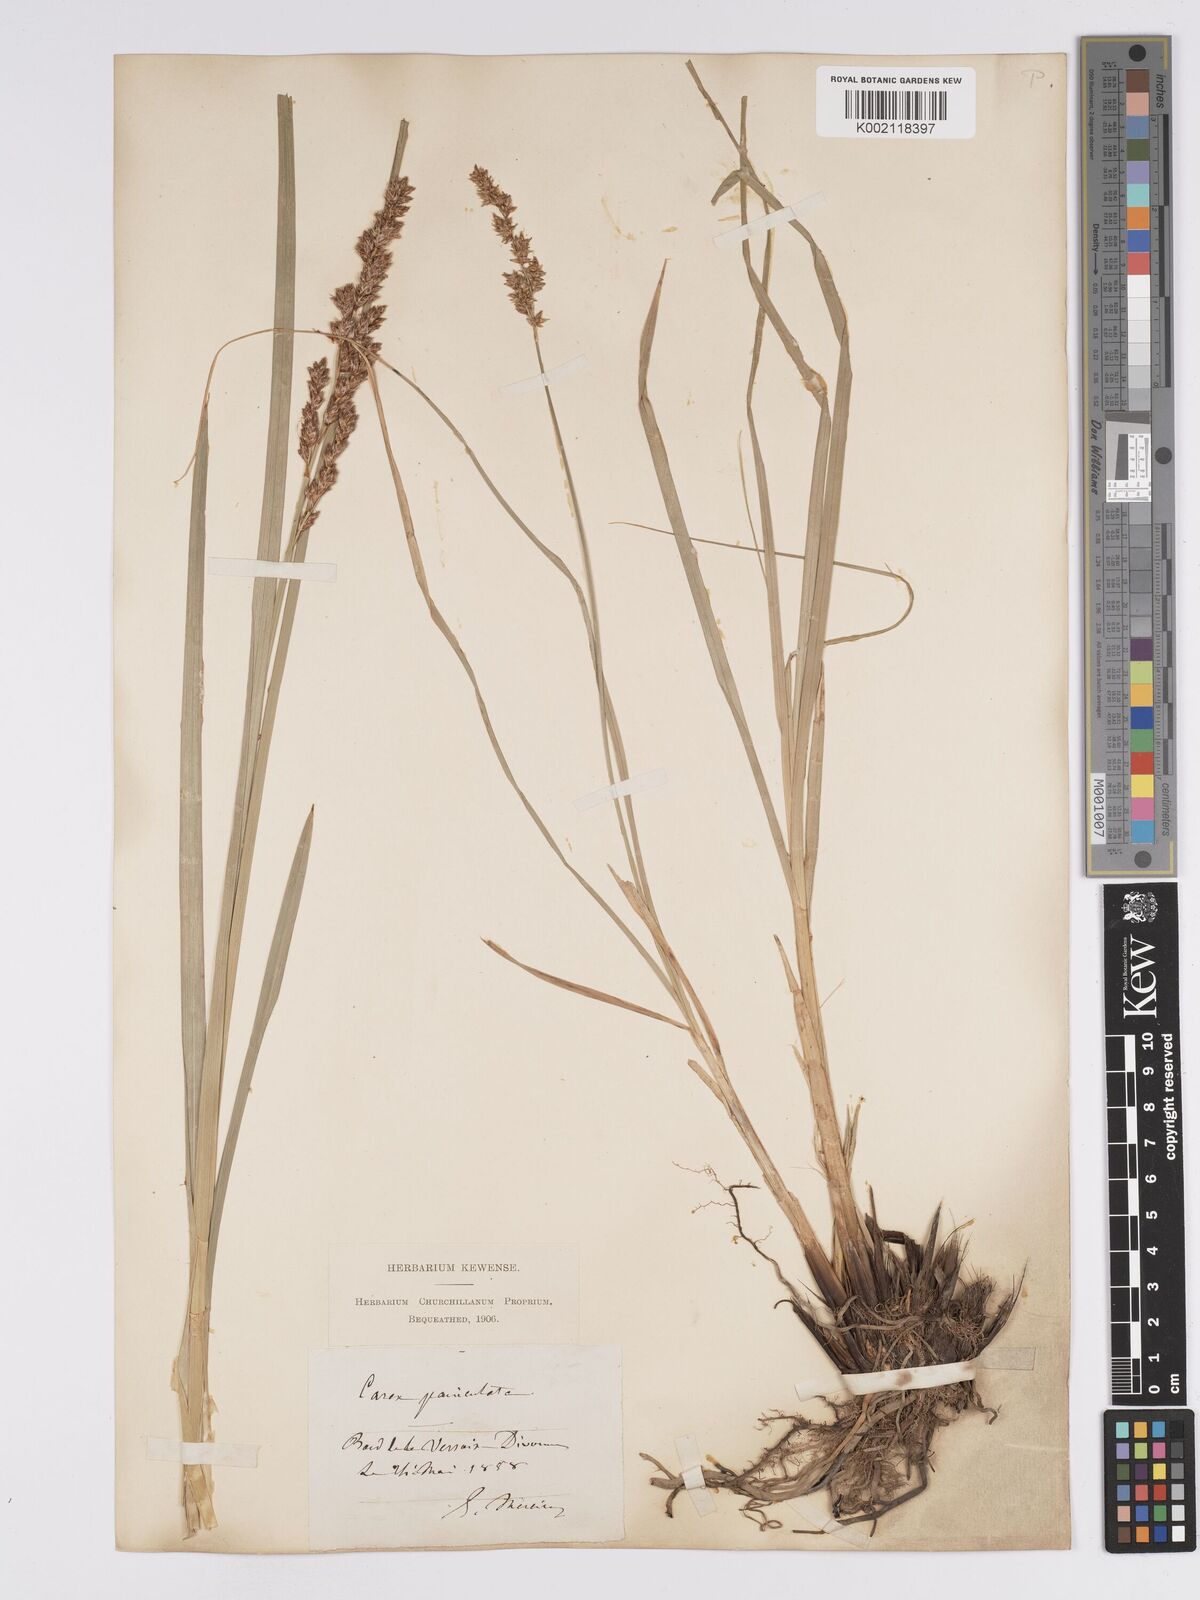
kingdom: Plantae
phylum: Tracheophyta
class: Liliopsida
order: Poales
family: Cyperaceae
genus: Carex
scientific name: Carex paniculata
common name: Greater tussock-sedge
